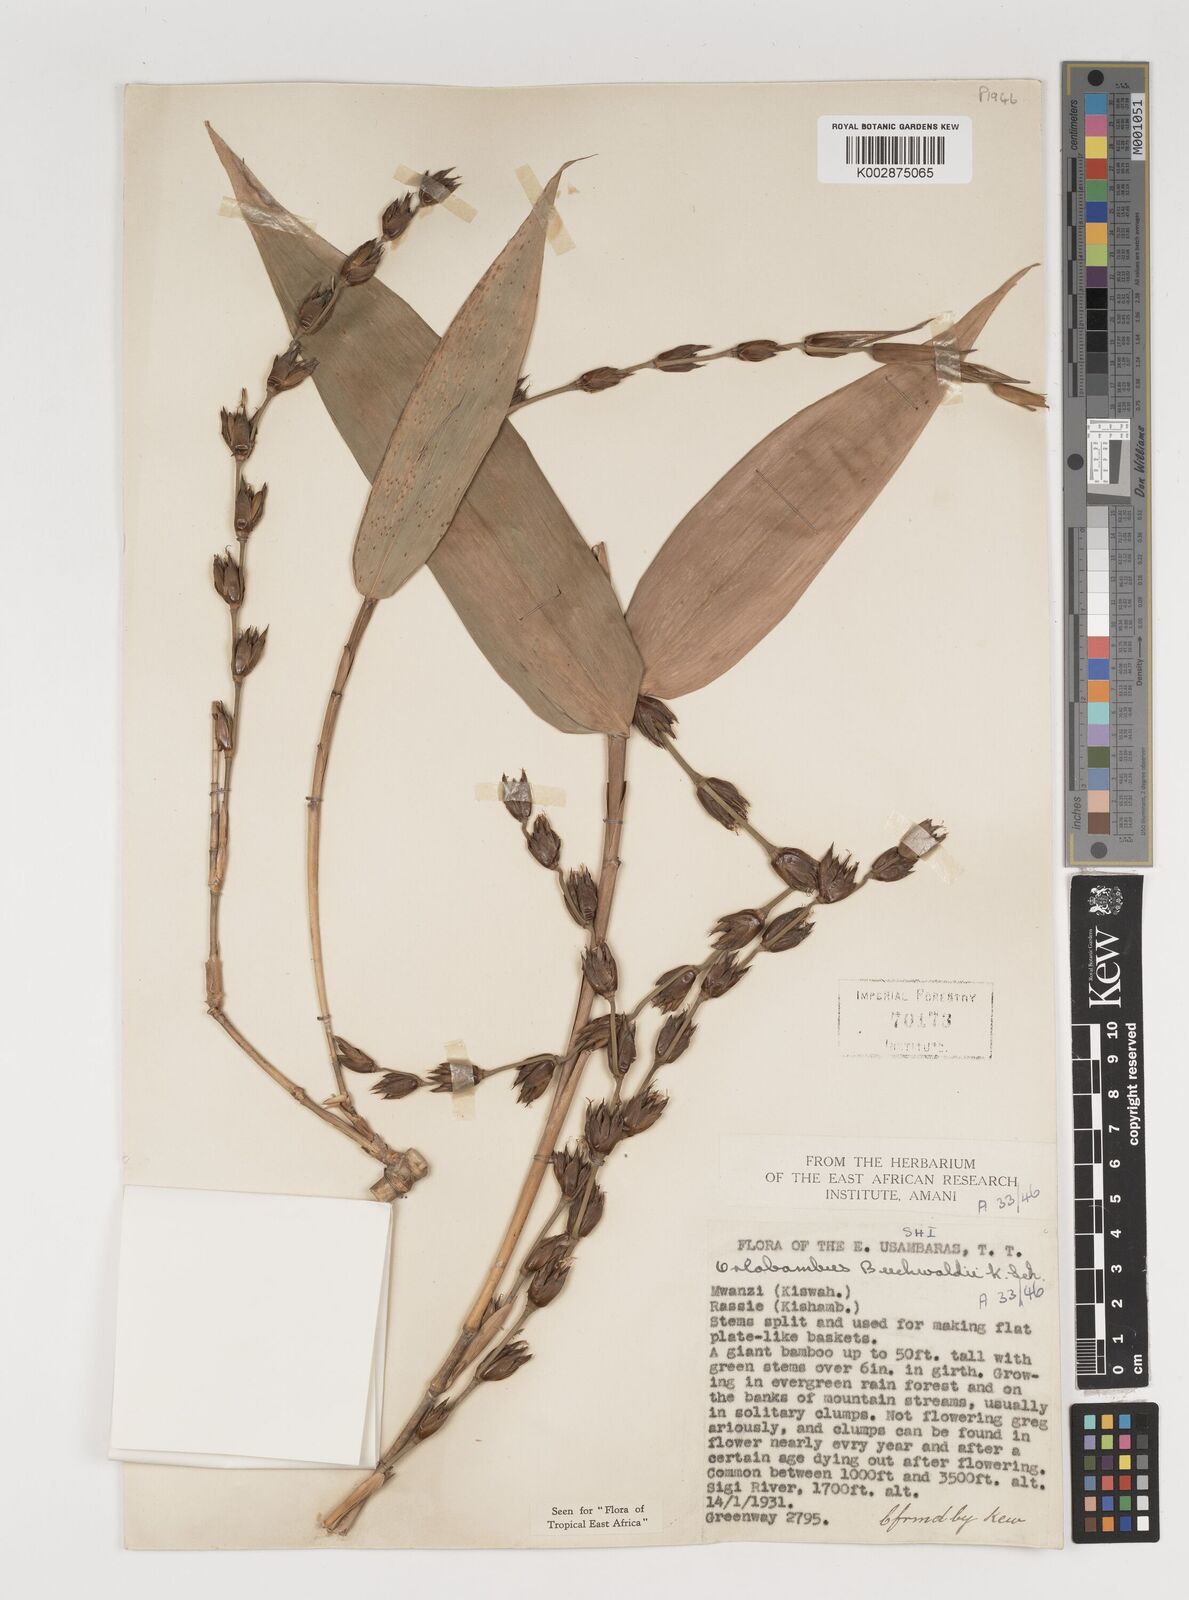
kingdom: Plantae
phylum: Tracheophyta
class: Liliopsida
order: Poales
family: Poaceae
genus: Oreobambos
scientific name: Oreobambos buchwaldii
